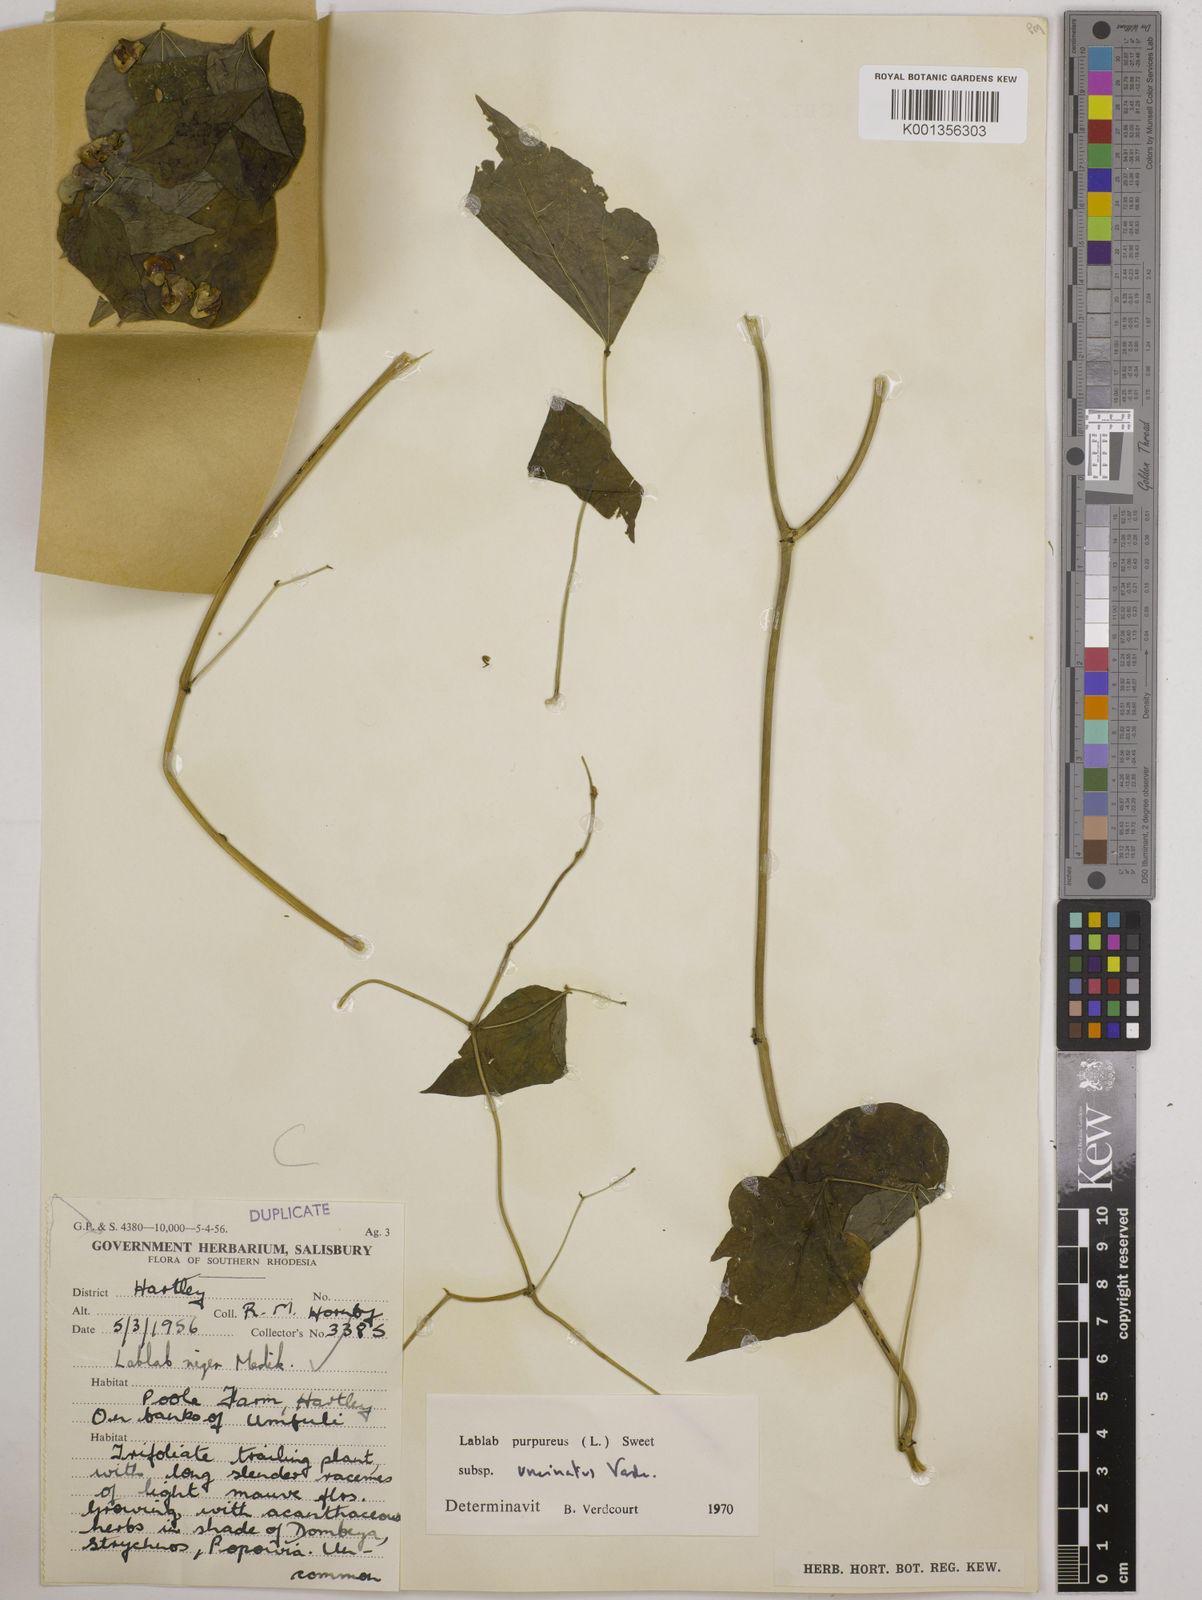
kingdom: Plantae
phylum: Tracheophyta
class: Magnoliopsida
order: Fabales
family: Fabaceae
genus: Lablab
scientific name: Lablab purpureus
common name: Lablab-bean
